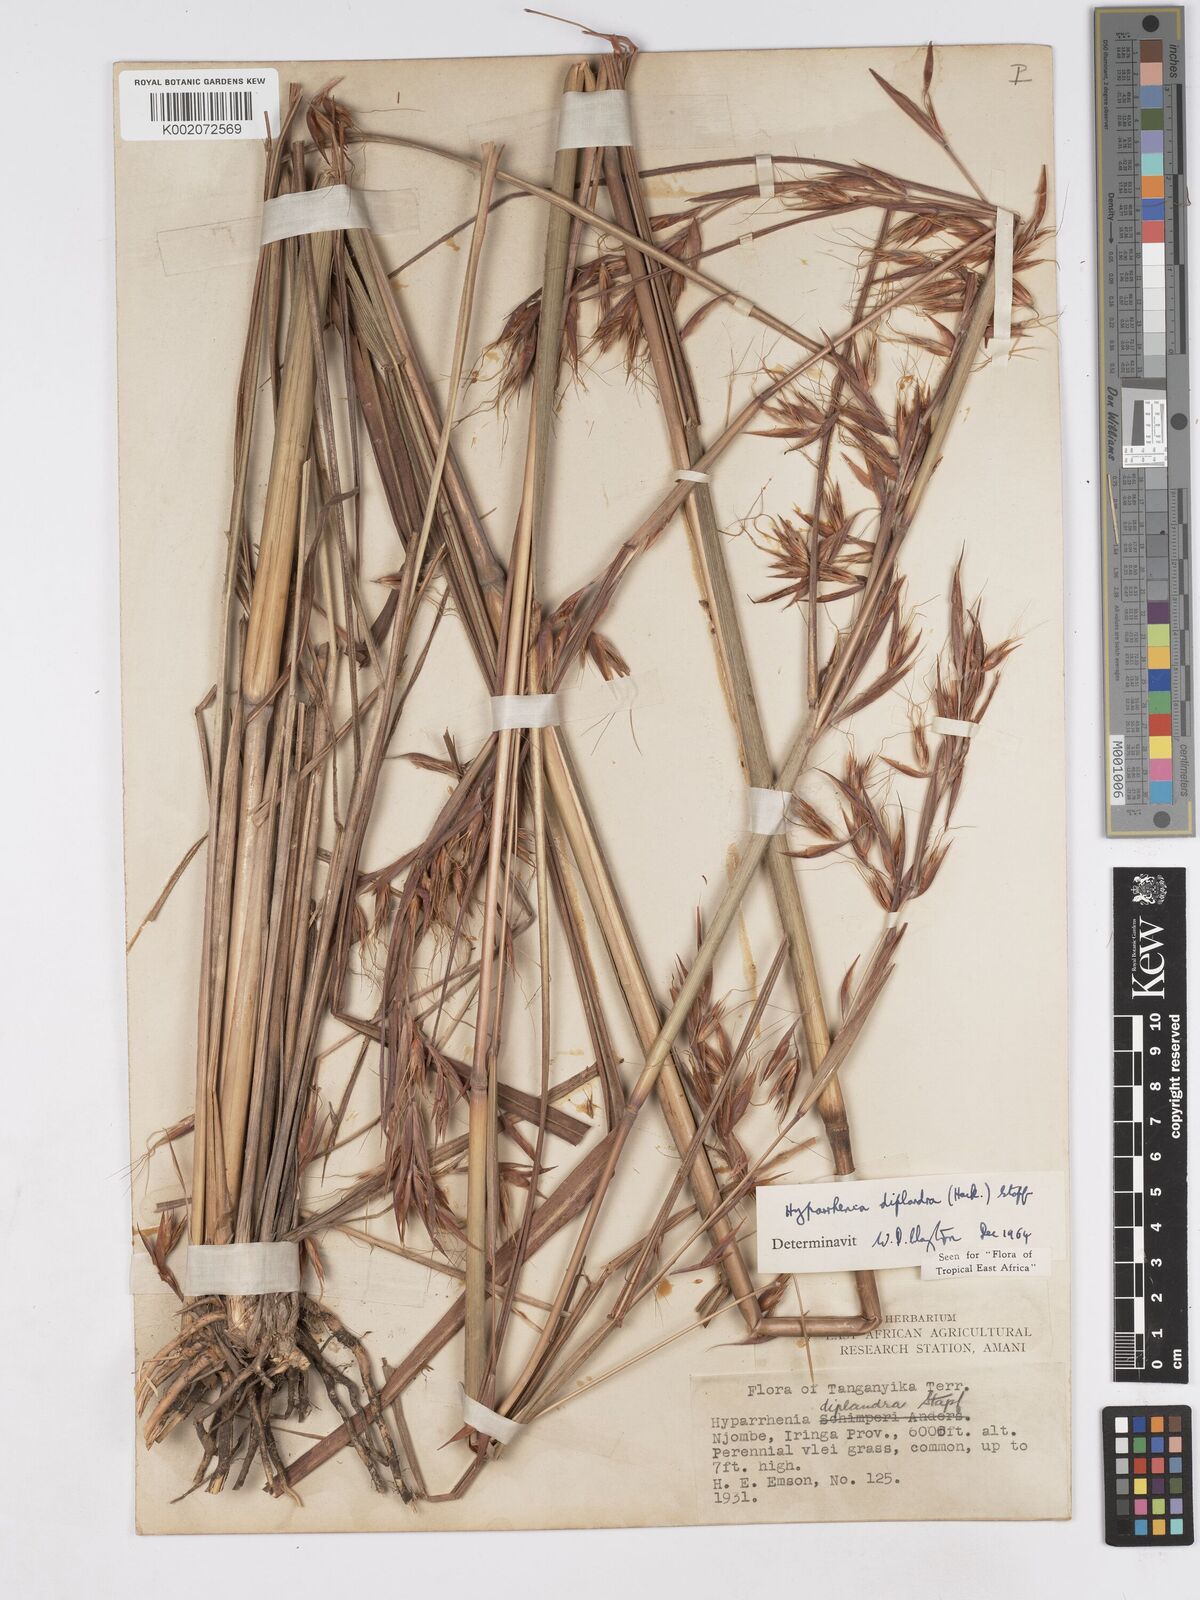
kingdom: Plantae
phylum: Tracheophyta
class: Liliopsida
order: Poales
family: Poaceae
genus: Hyparrhenia
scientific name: Hyparrhenia diplandra
